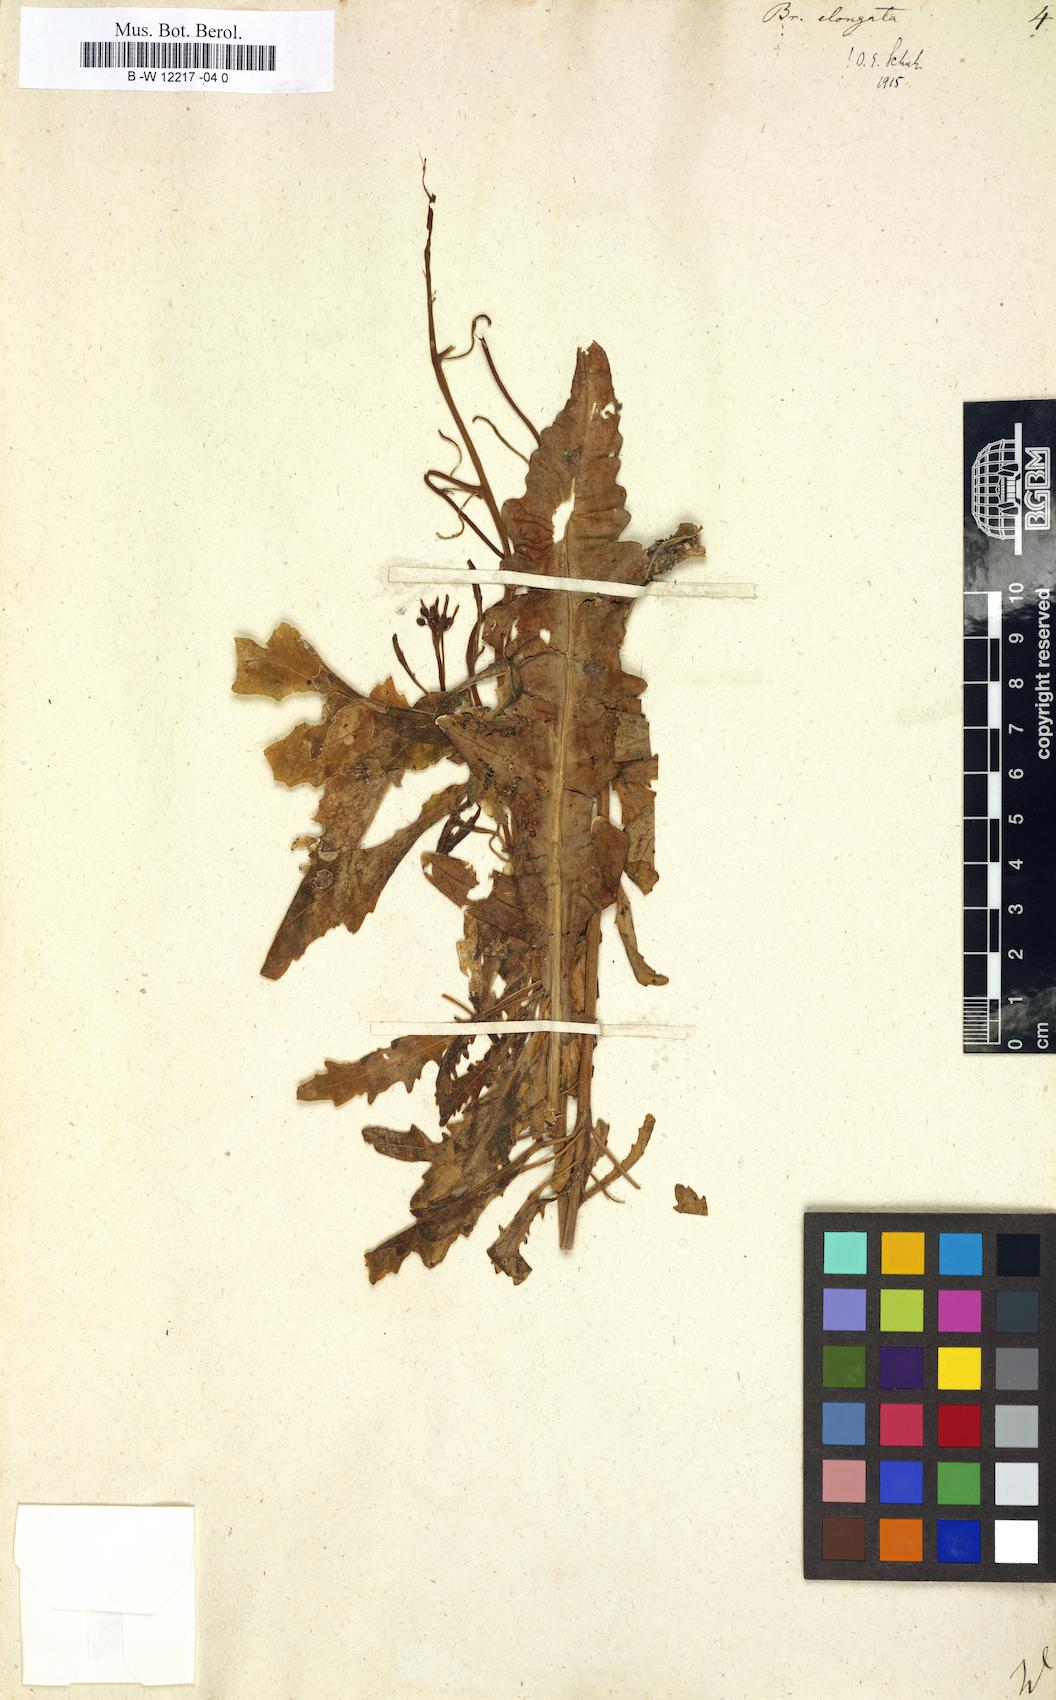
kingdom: Plantae
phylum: Tracheophyta
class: Magnoliopsida
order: Brassicales
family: Brassicaceae
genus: Brassica
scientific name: Brassica elongata
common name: Long-stalked rape
